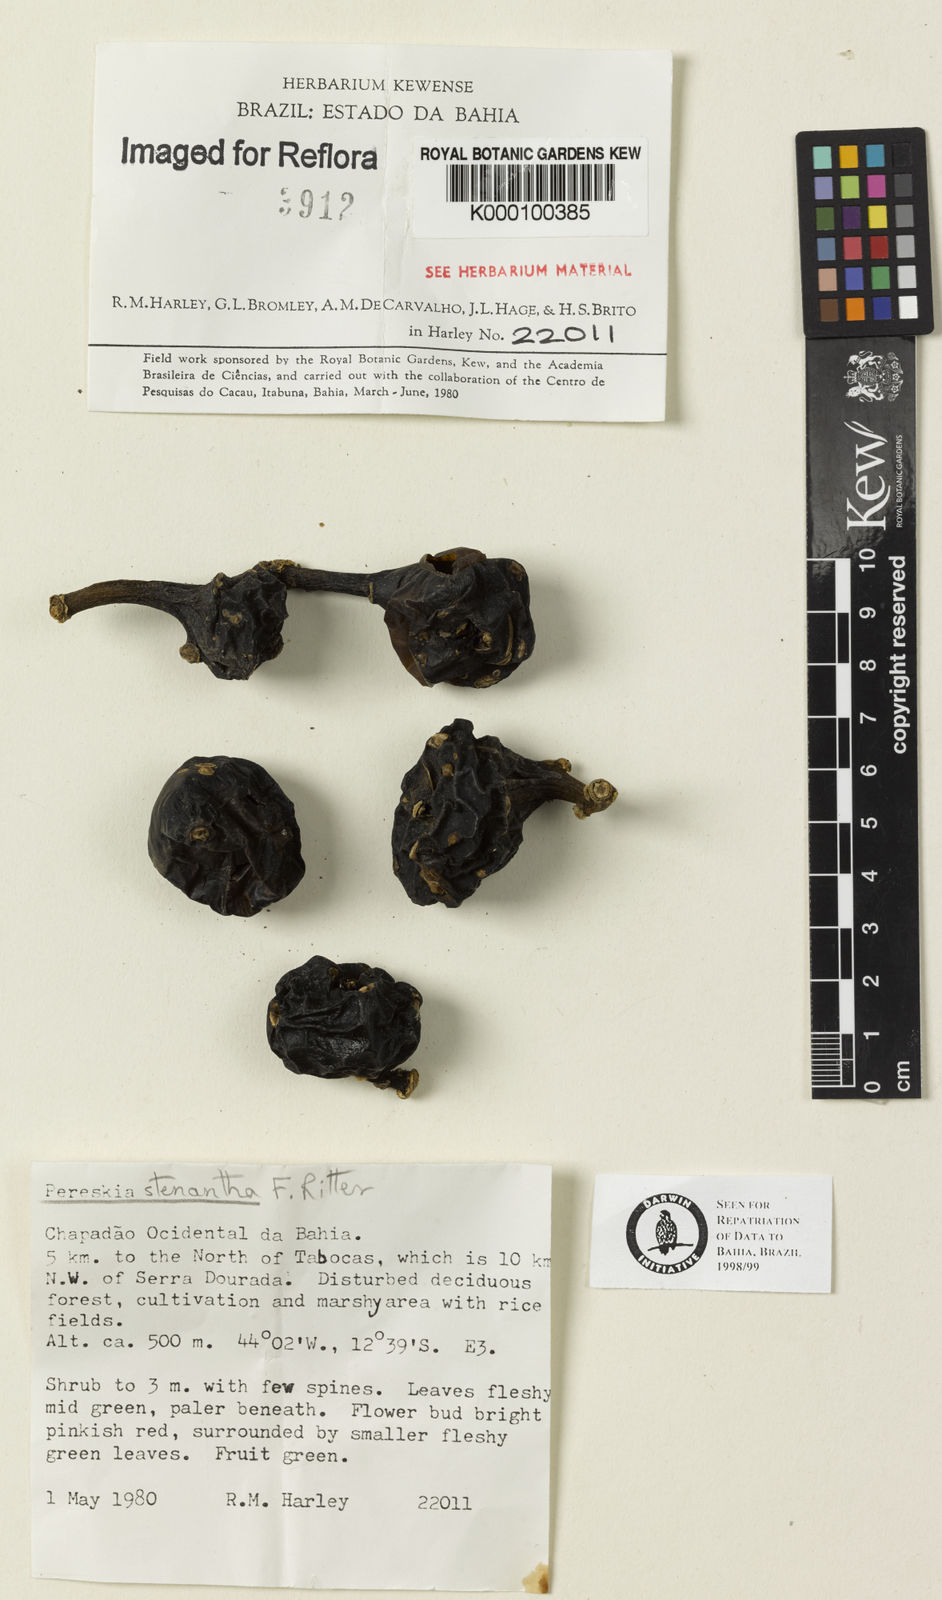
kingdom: Plantae
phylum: Tracheophyta
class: Magnoliopsida
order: Caryophyllales
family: Cactaceae
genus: Pereskia
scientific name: Pereskia stenantha
